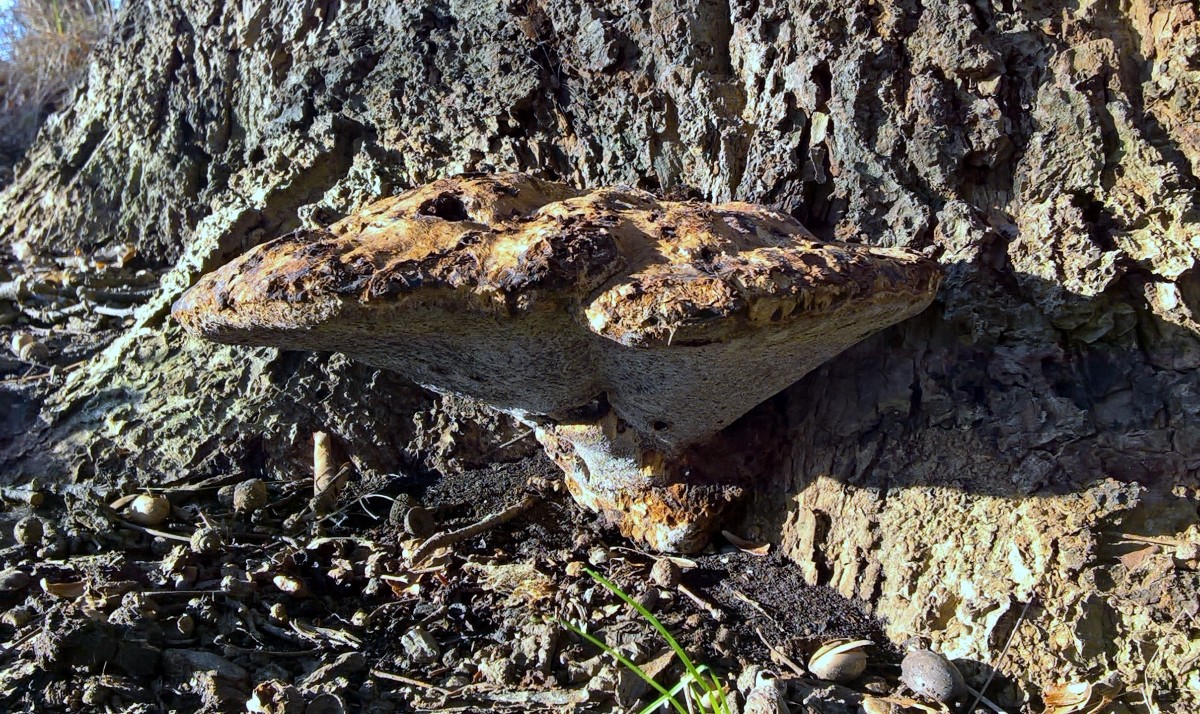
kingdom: Fungi
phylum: Basidiomycota
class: Agaricomycetes
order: Hymenochaetales
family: Hymenochaetaceae
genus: Pseudoinonotus
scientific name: Pseudoinonotus dryadeus
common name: ege-spejlporesvamp
